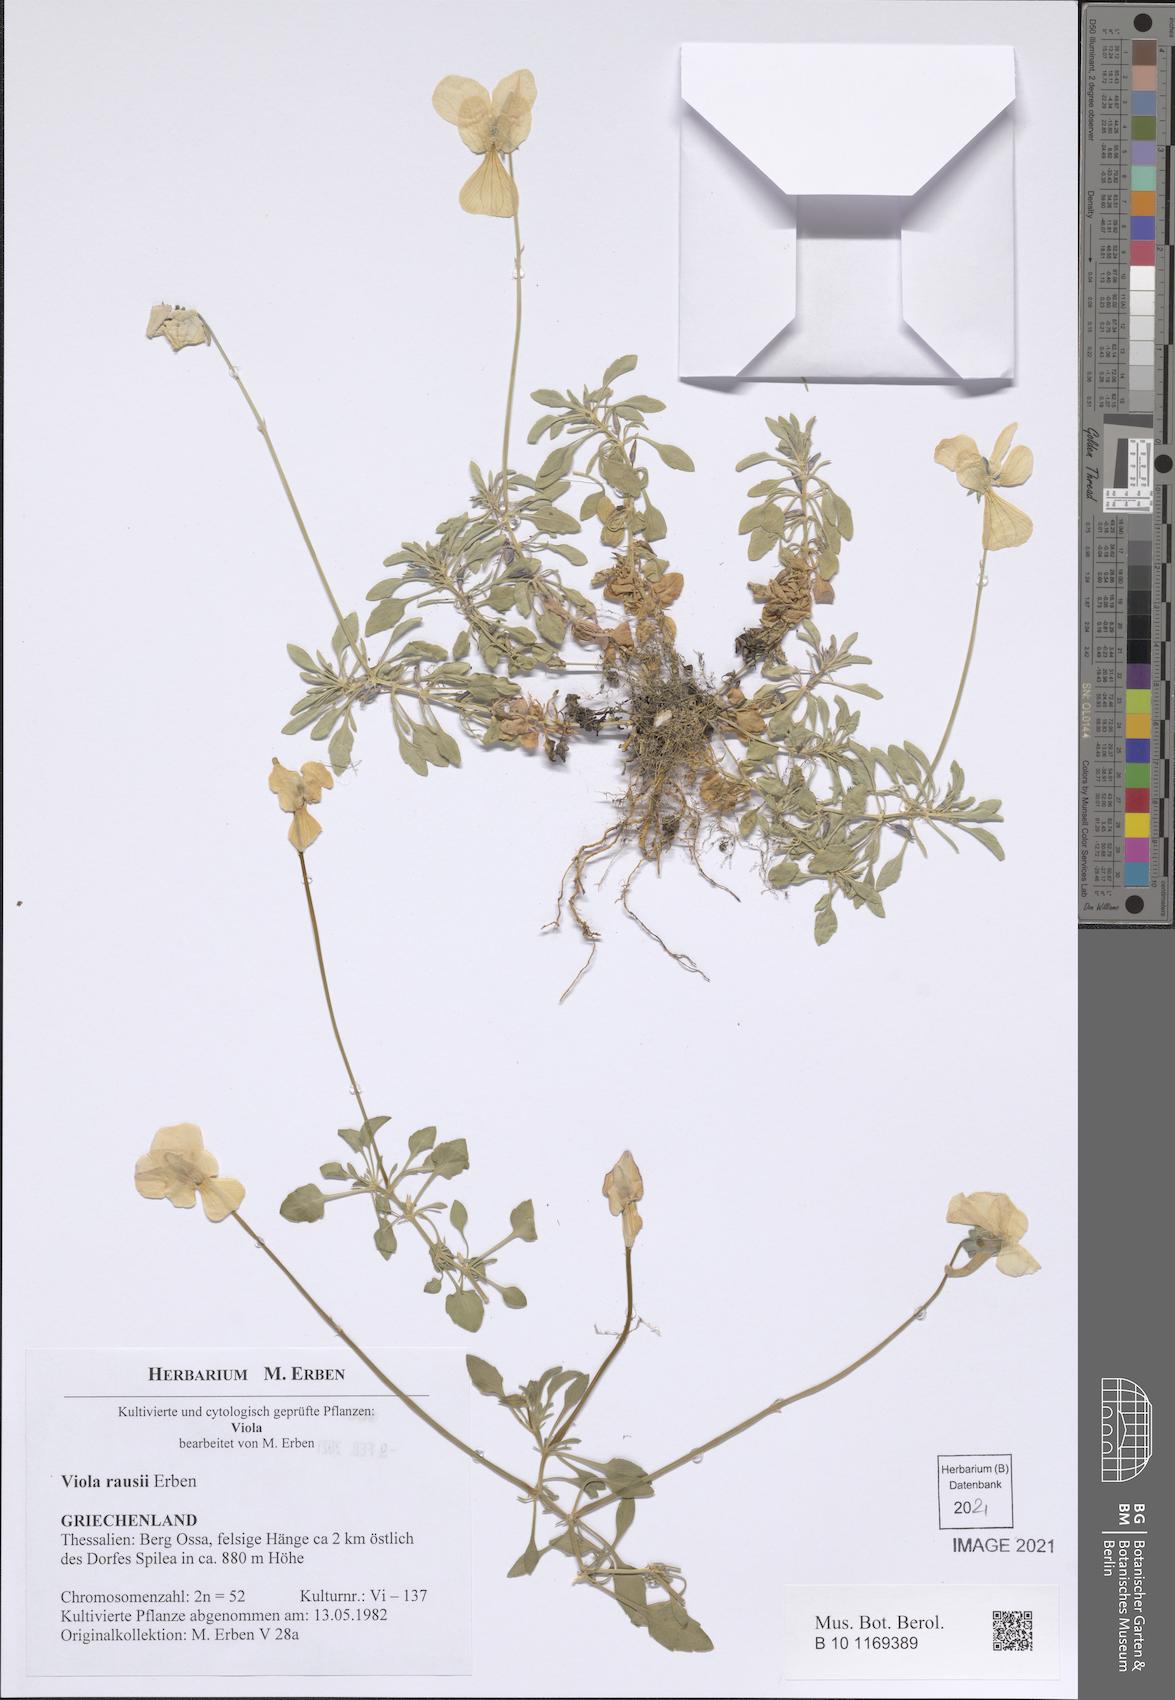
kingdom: Plantae
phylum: Tracheophyta
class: Magnoliopsida
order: Malpighiales
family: Violaceae
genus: Viola
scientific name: Viola rausii
